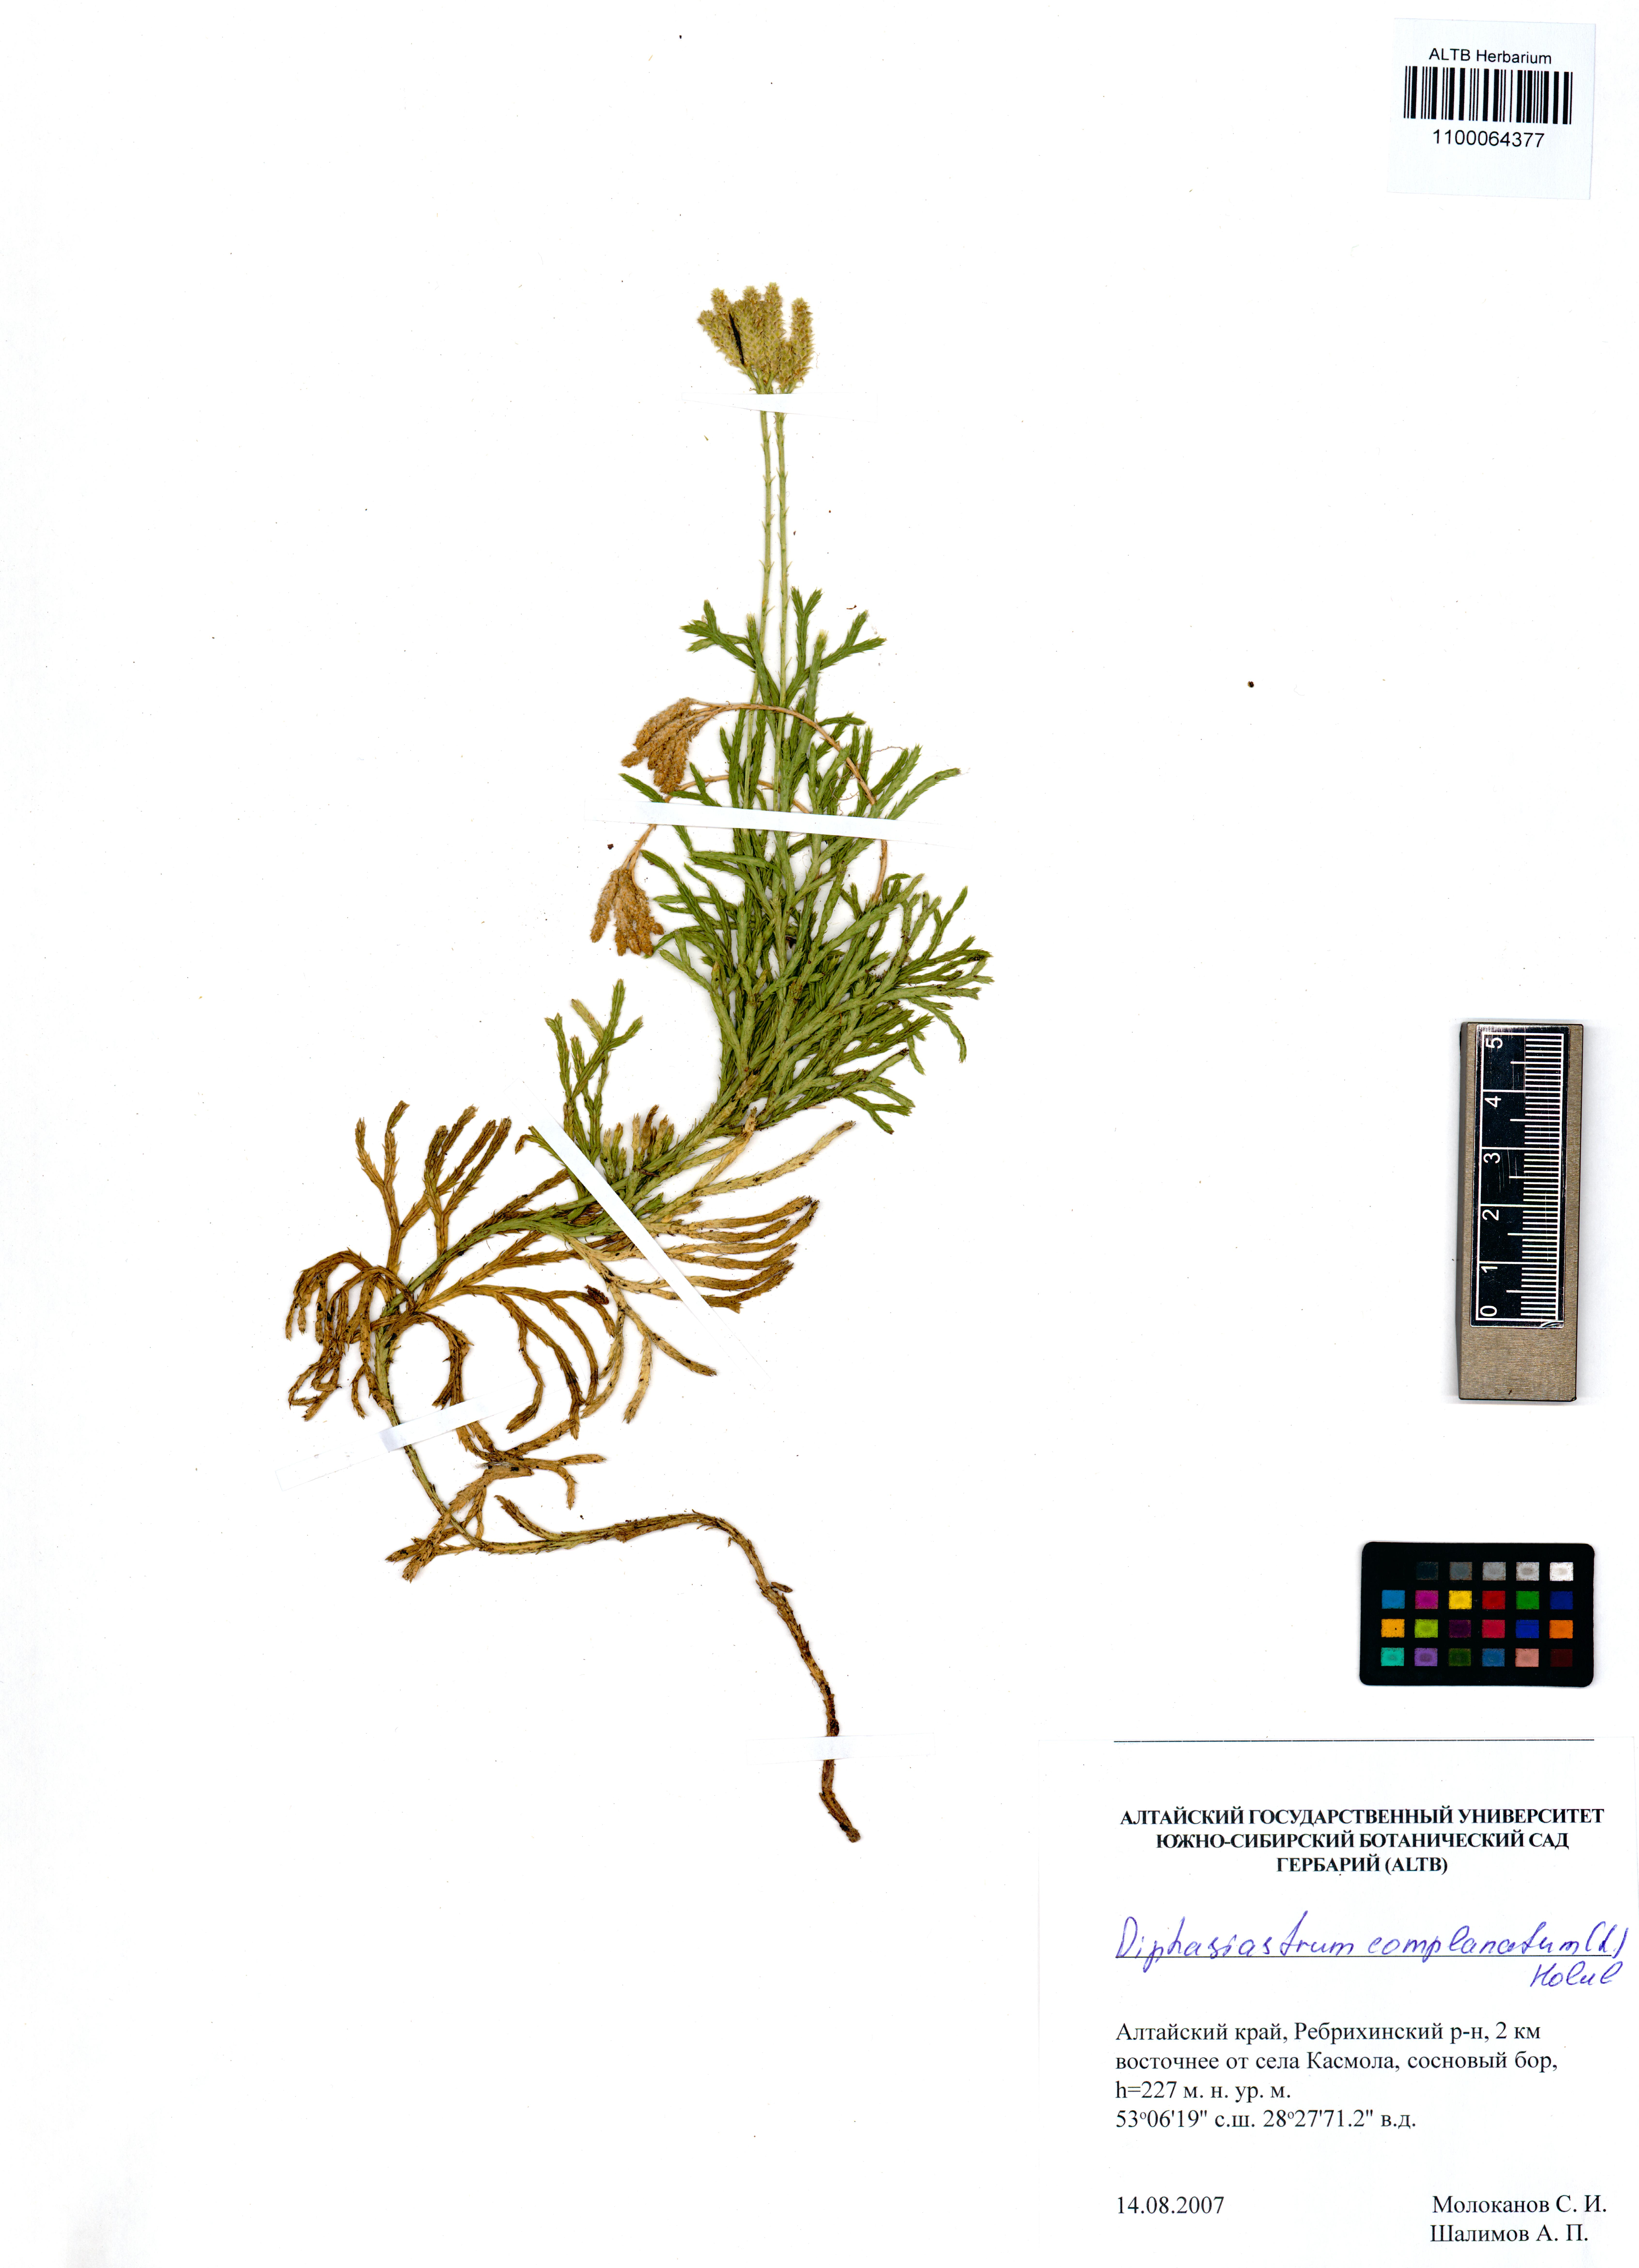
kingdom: Plantae
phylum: Tracheophyta
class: Lycopodiopsida
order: Lycopodiales
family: Lycopodiaceae
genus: Diphasiastrum
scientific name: Diphasiastrum complanatum
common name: Northern running-pine
